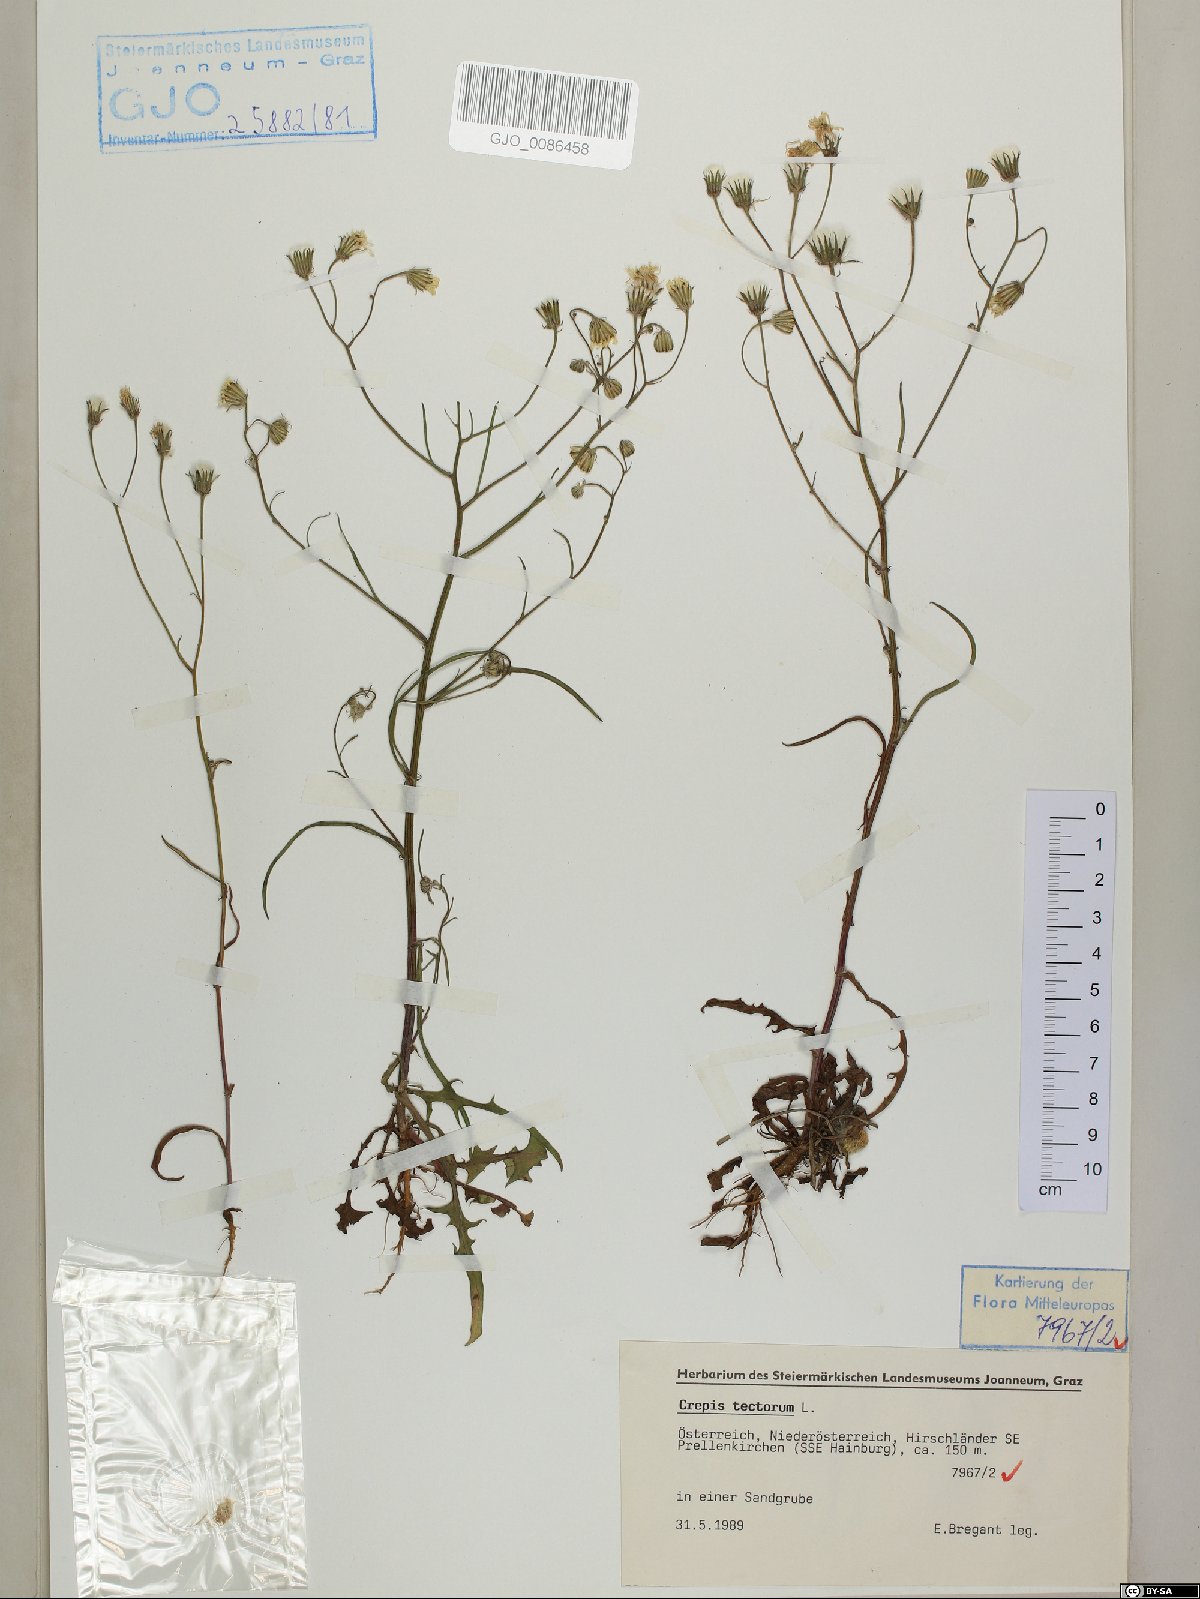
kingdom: Plantae
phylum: Tracheophyta
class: Magnoliopsida
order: Asterales
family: Asteraceae
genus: Crepis
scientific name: Crepis tectorum
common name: Narrow-leaved hawk's-beard
